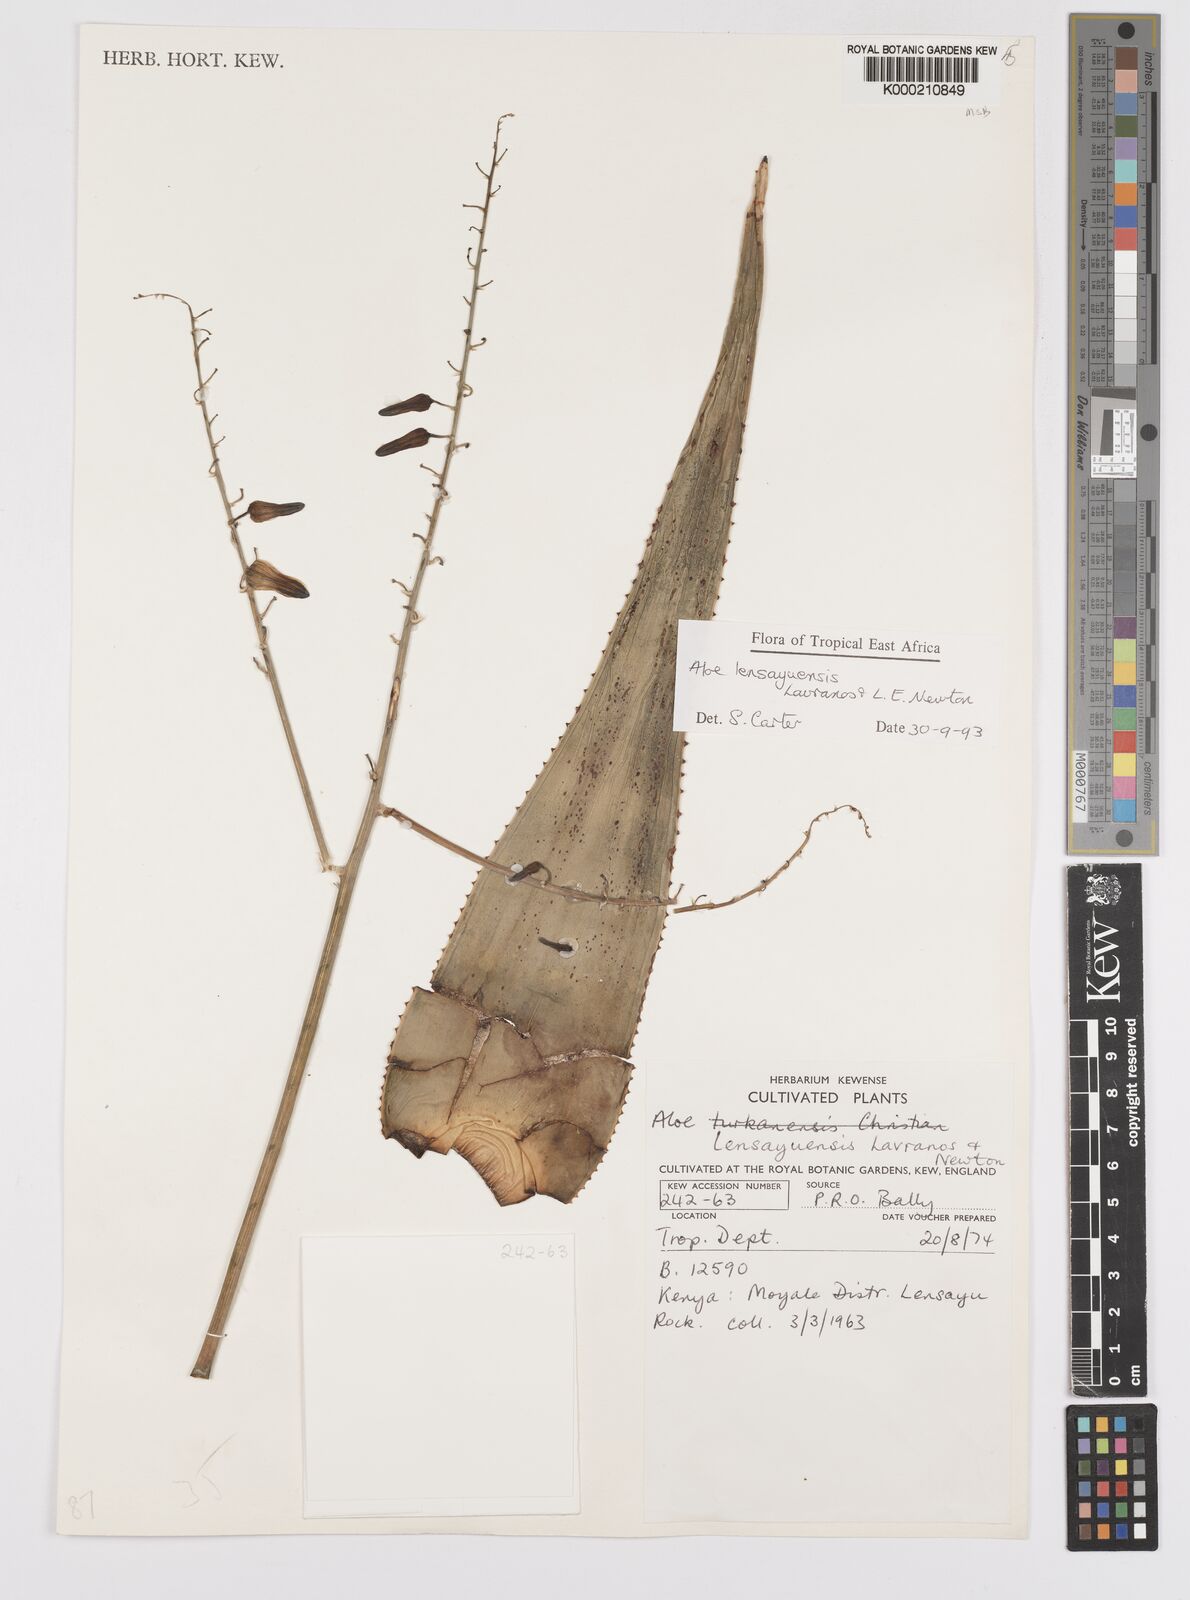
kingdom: Plantae
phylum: Tracheophyta
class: Liliopsida
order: Asparagales
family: Asphodelaceae
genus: Aloe
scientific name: Aloe lensayuensis
